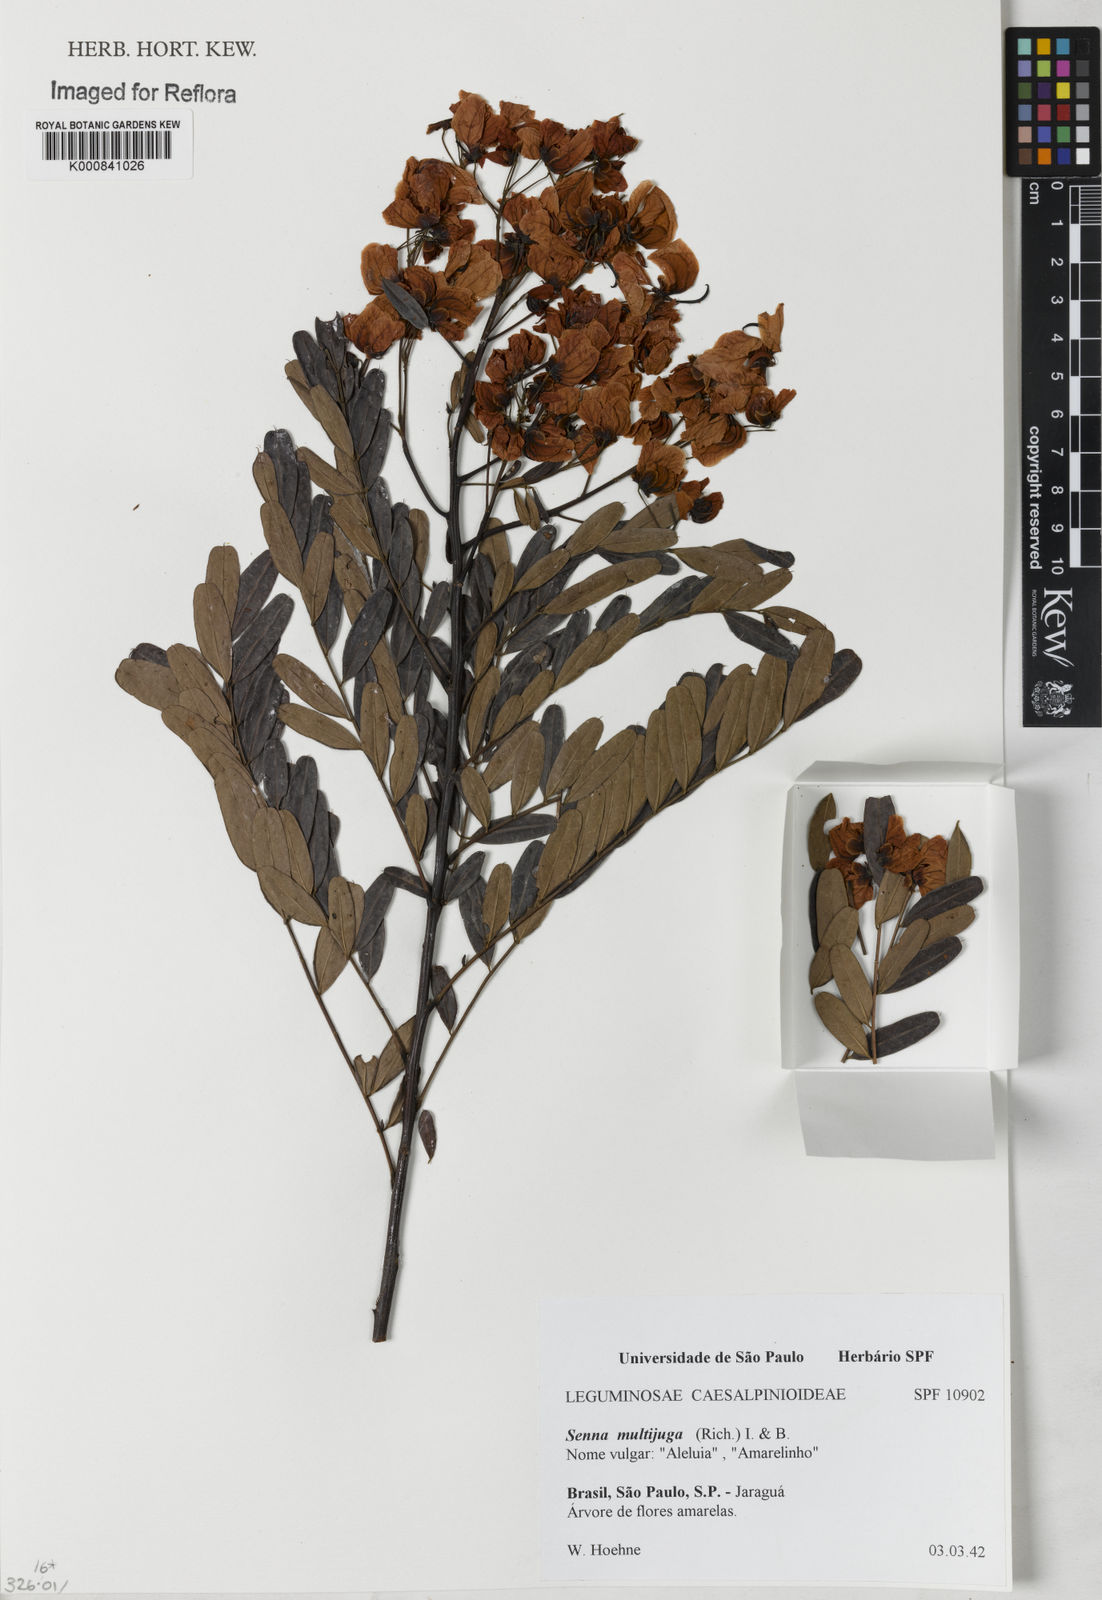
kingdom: Plantae
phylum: Tracheophyta
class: Magnoliopsida
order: Fabales
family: Fabaceae
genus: Senna
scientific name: Senna multijuga
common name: False sicklepod
